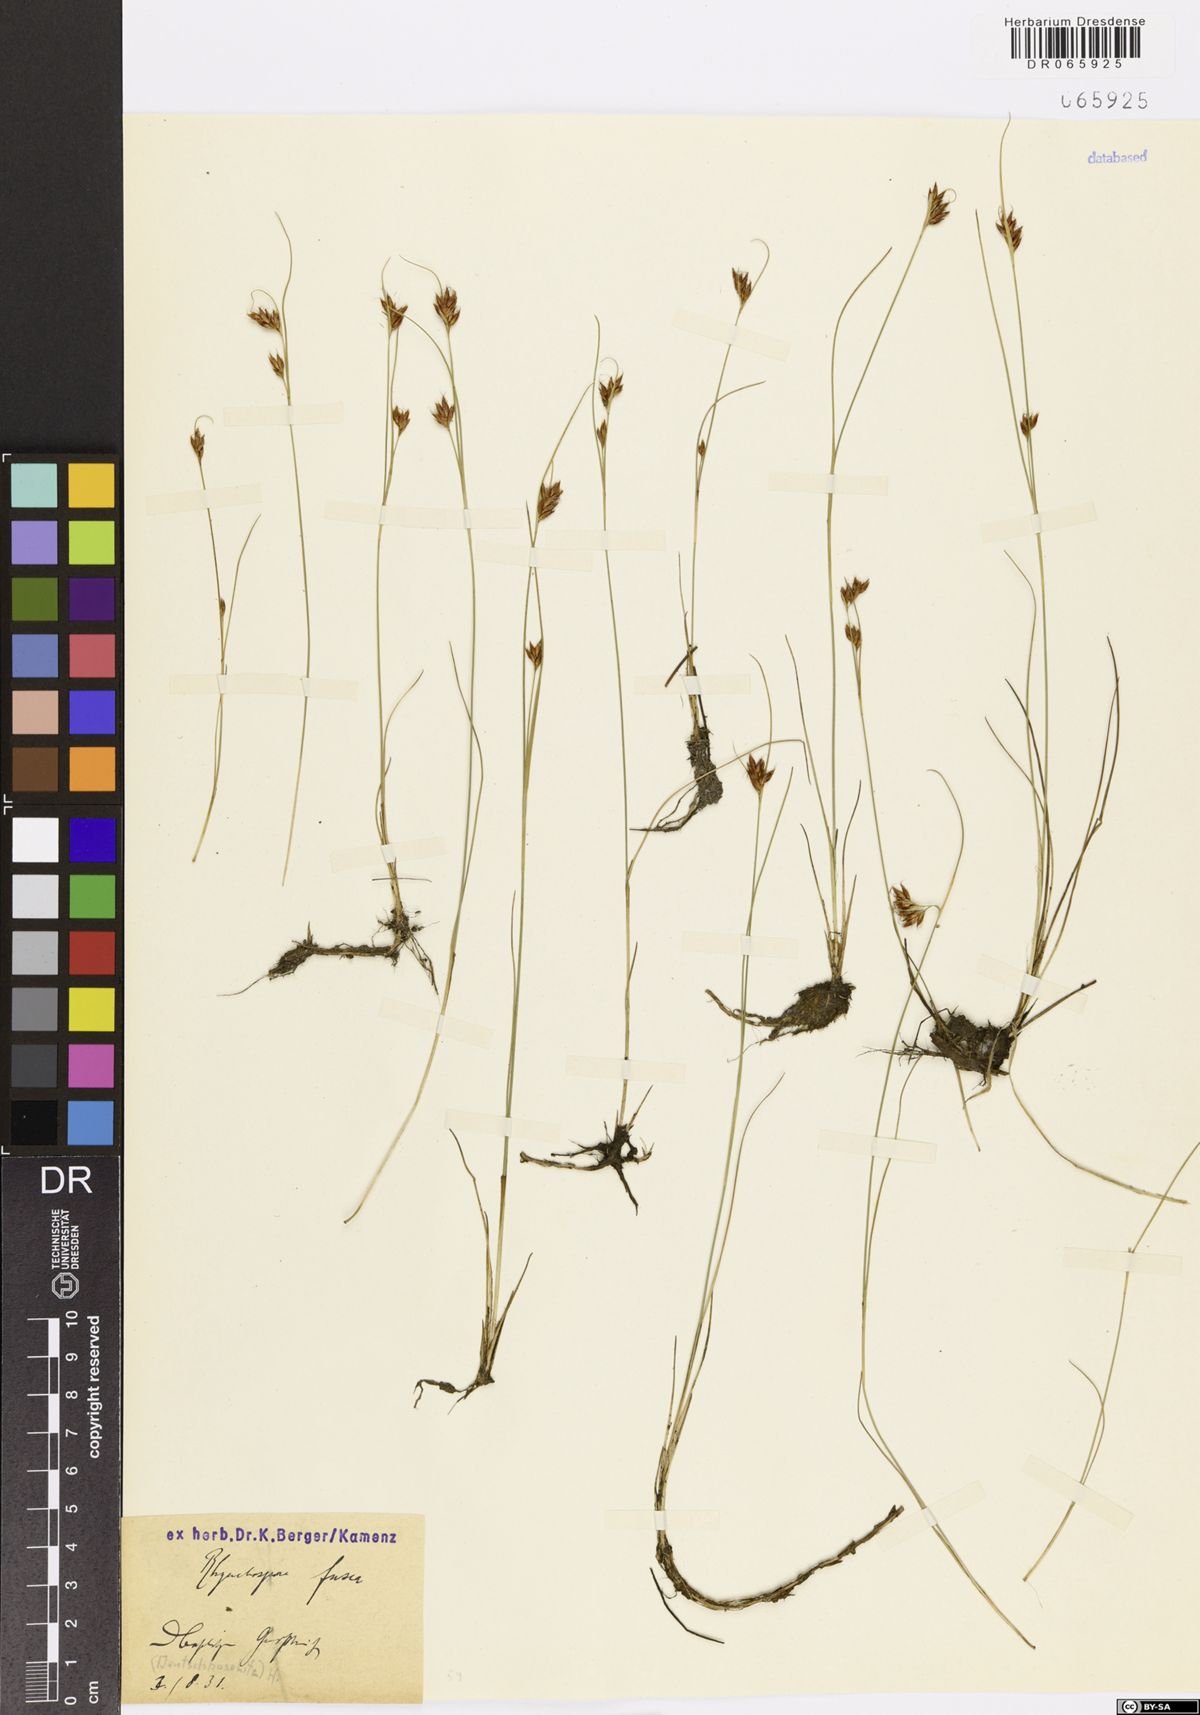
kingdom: Plantae
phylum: Tracheophyta
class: Liliopsida
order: Poales
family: Cyperaceae
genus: Rhynchospora
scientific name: Rhynchospora fusca
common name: Brown beak-sedge
